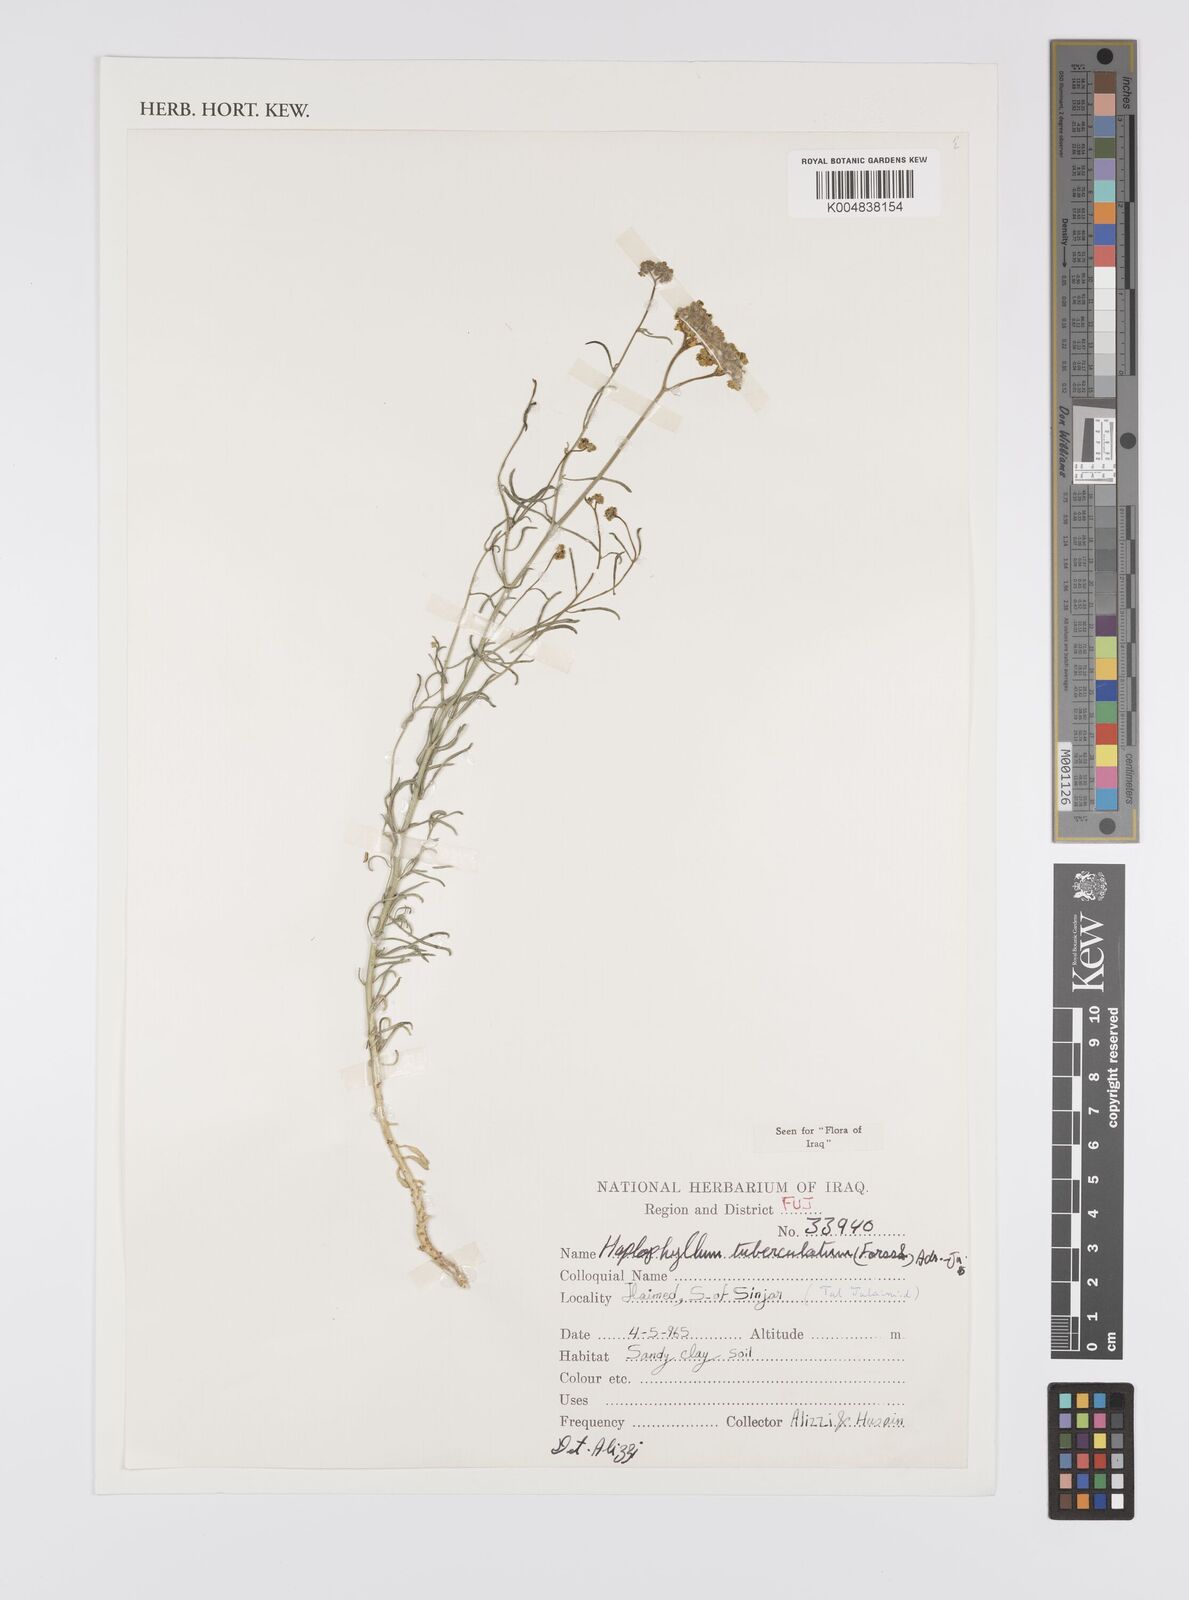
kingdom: Plantae
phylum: Tracheophyta
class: Magnoliopsida
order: Sapindales
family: Rutaceae
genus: Haplophyllum
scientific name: Haplophyllum tuberculatum
